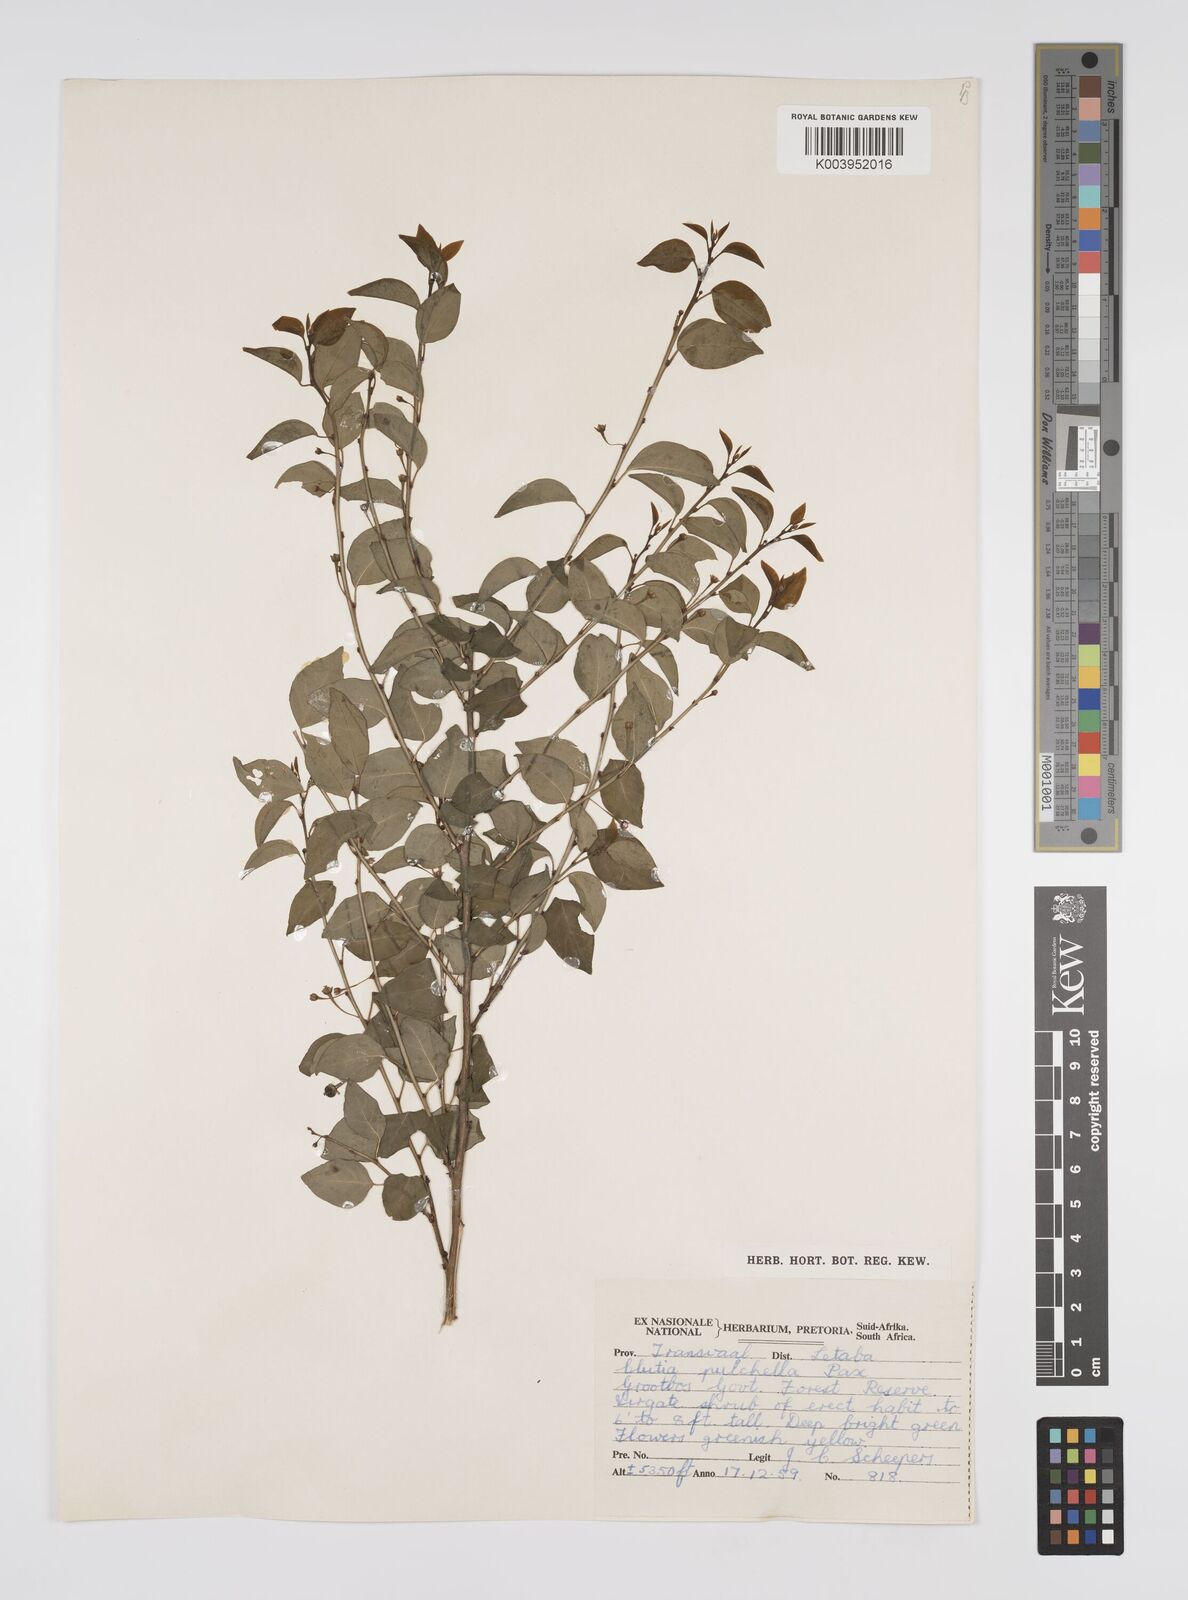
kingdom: Plantae
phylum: Tracheophyta
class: Magnoliopsida
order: Malpighiales
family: Peraceae
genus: Clutia
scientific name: Clutia pulchella
